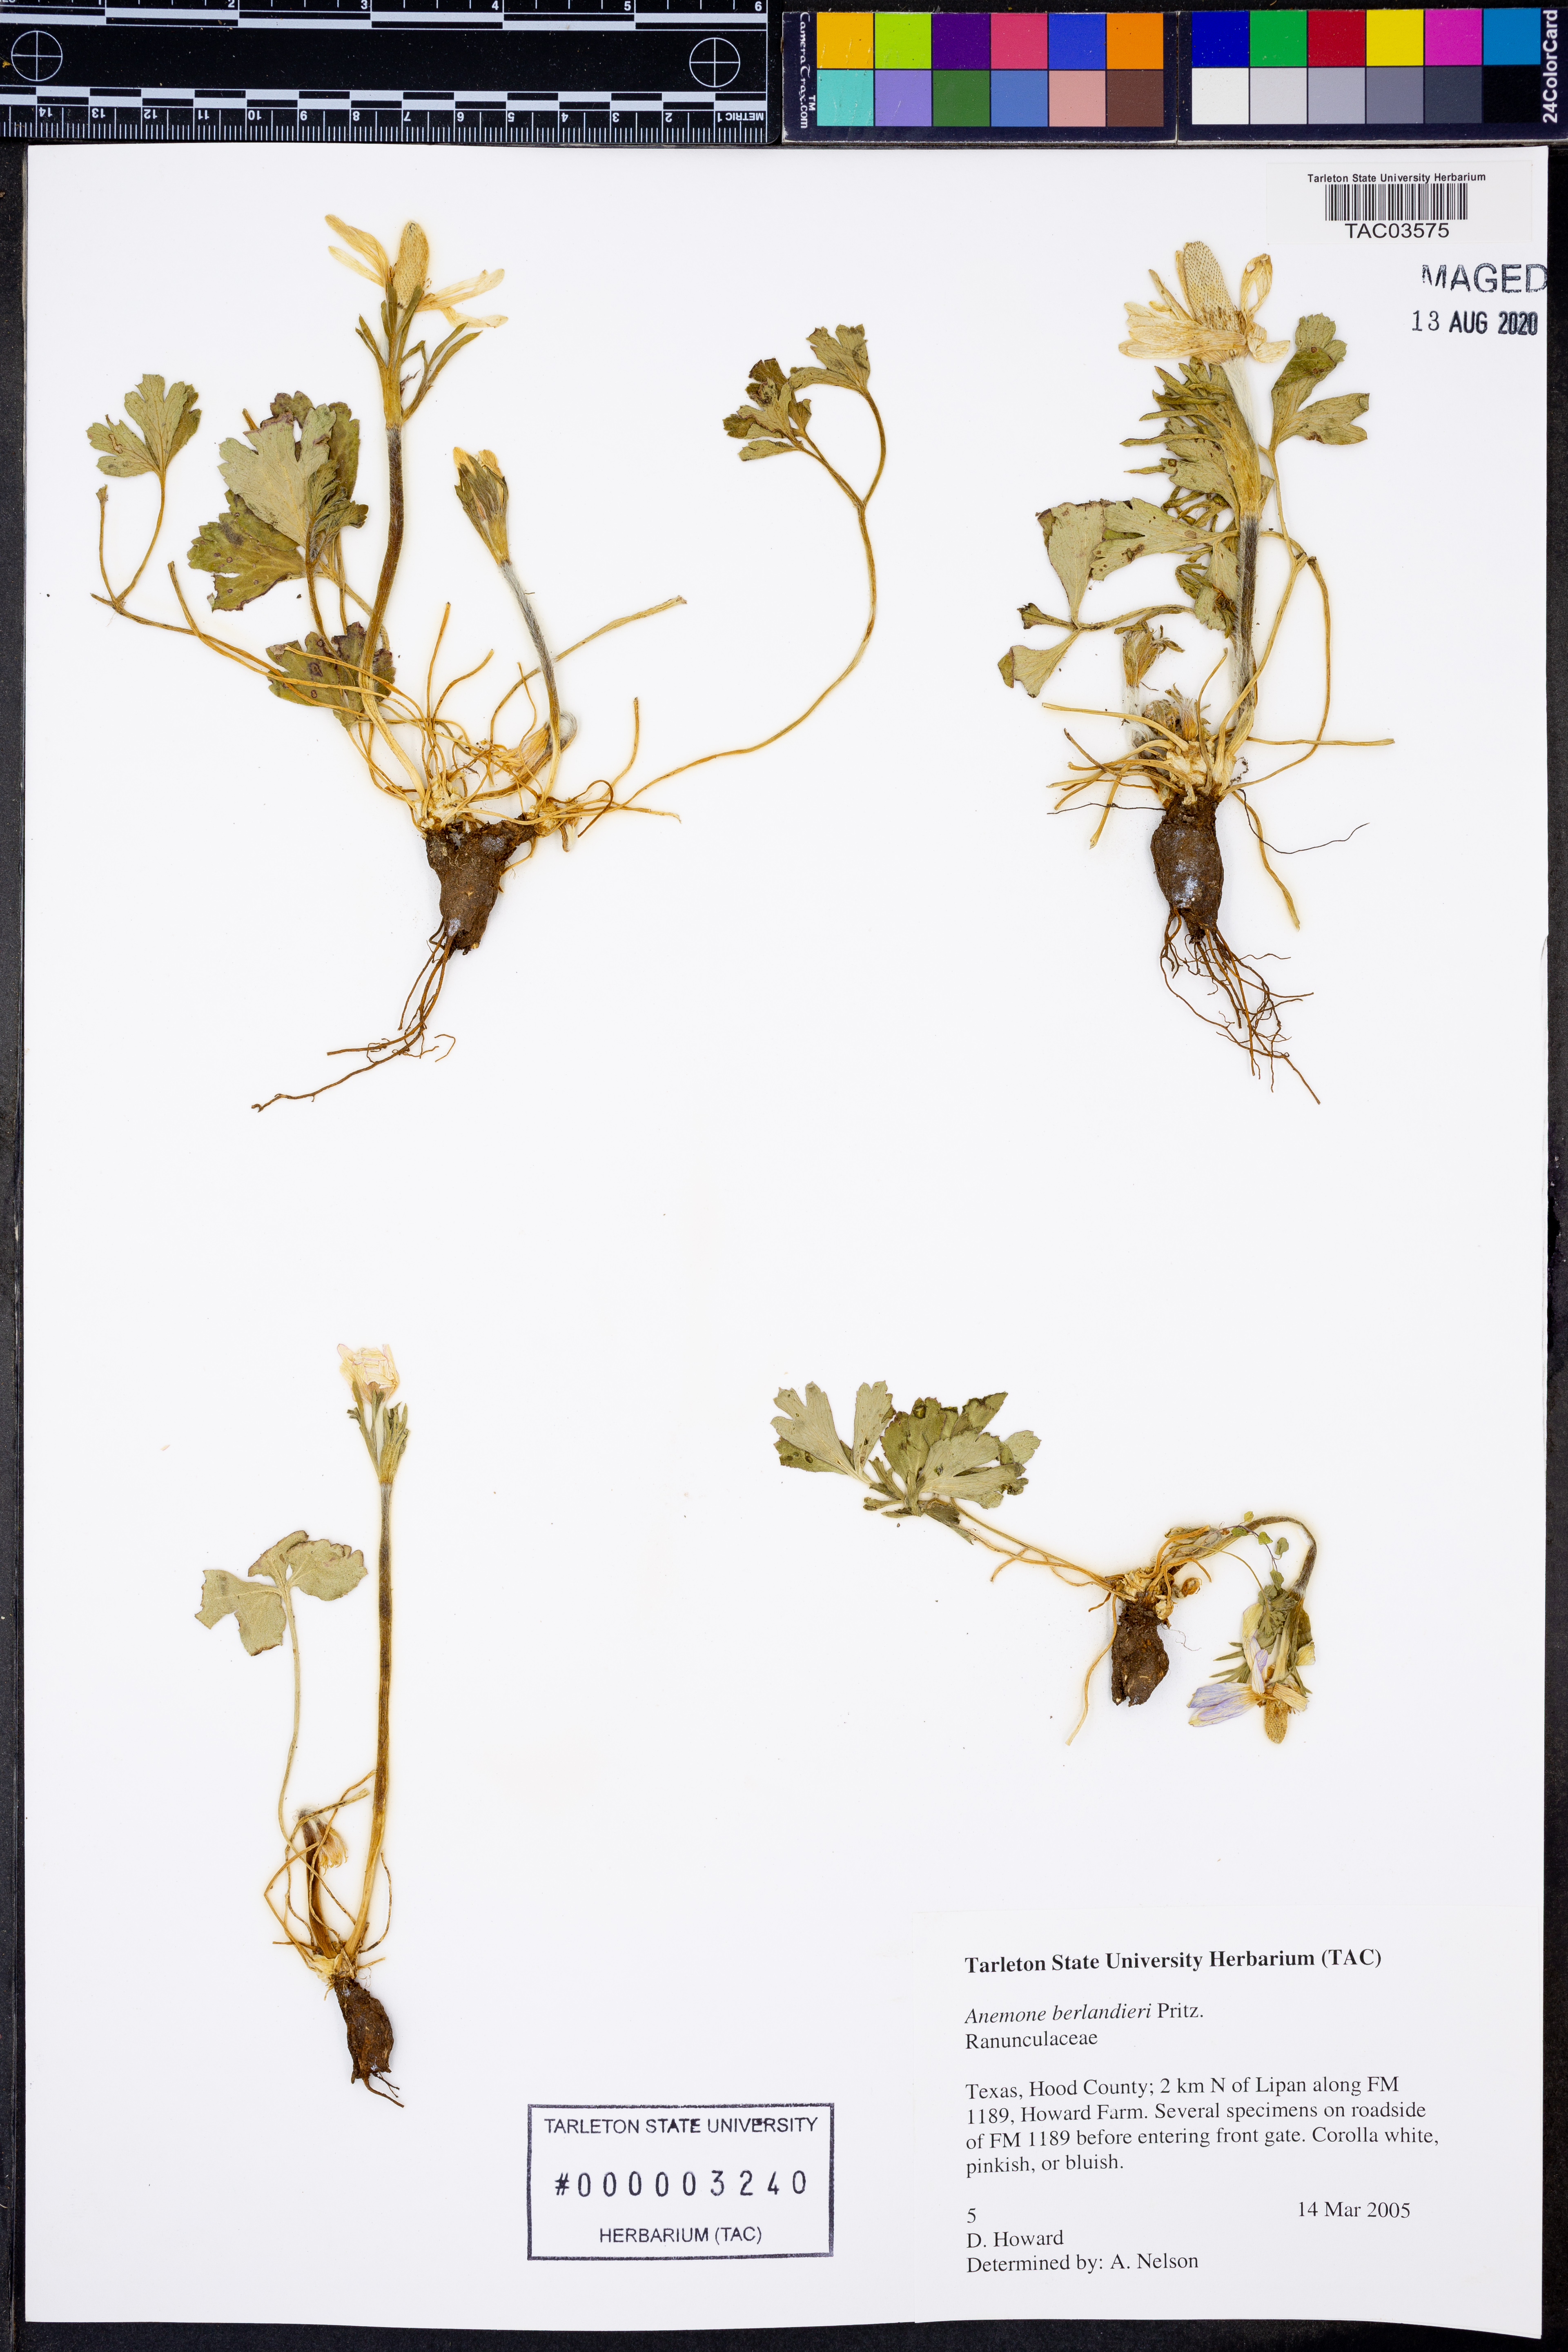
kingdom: Plantae
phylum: Tracheophyta
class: Magnoliopsida
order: Ranunculales
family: Ranunculaceae
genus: Anemone
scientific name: Anemone berlandieri
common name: Ten-petal anemone
